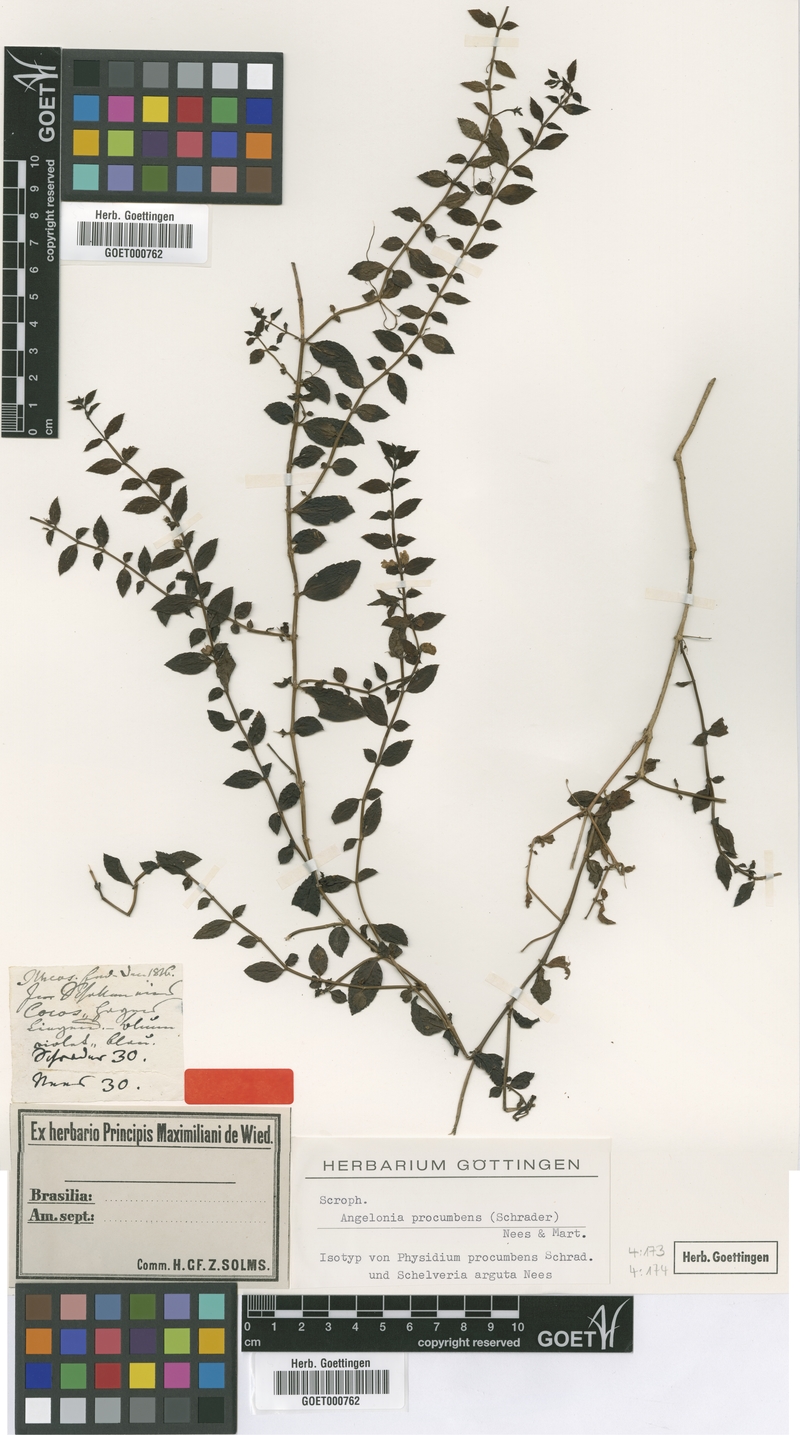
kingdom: Plantae
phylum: Tracheophyta
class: Magnoliopsida
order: Lamiales
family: Plantaginaceae
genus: Angelonia
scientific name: Angelonia procumbens
